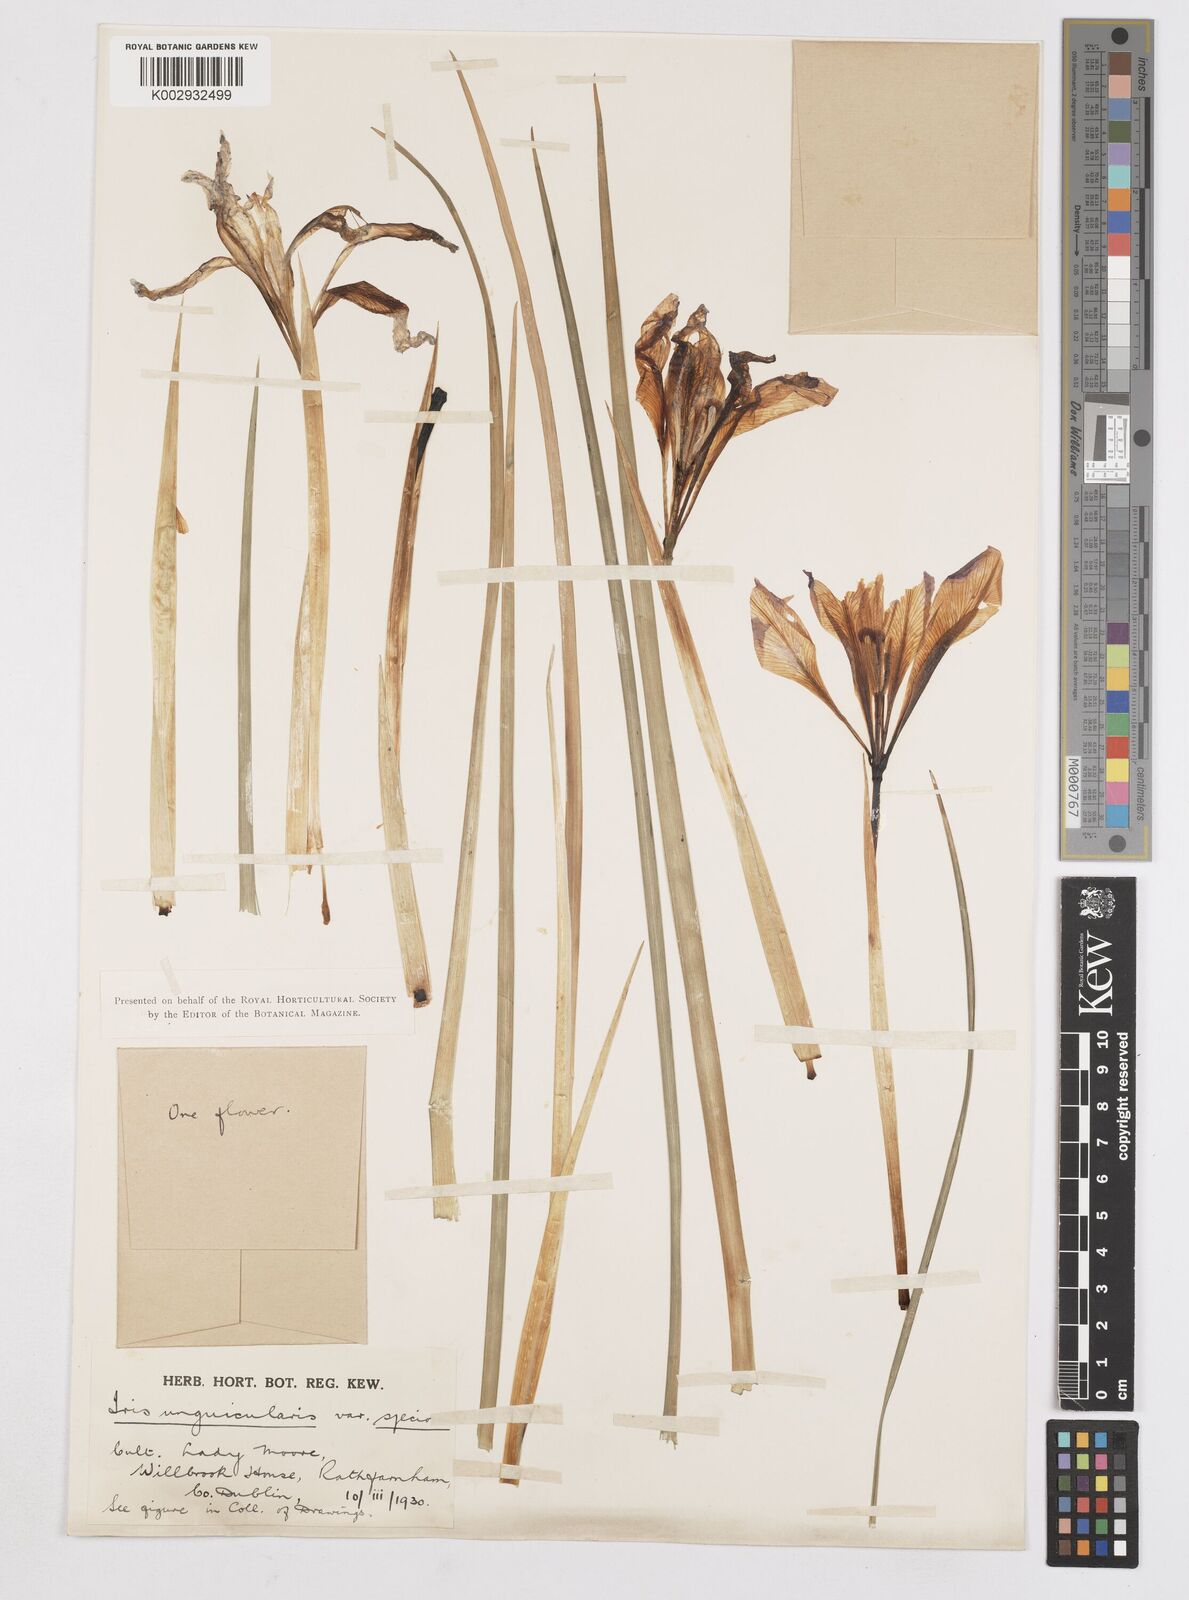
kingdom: Plantae
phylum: Tracheophyta
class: Liliopsida
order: Asparagales
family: Iridaceae
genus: Iris
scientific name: Iris unguicularis
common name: Algerian iris
